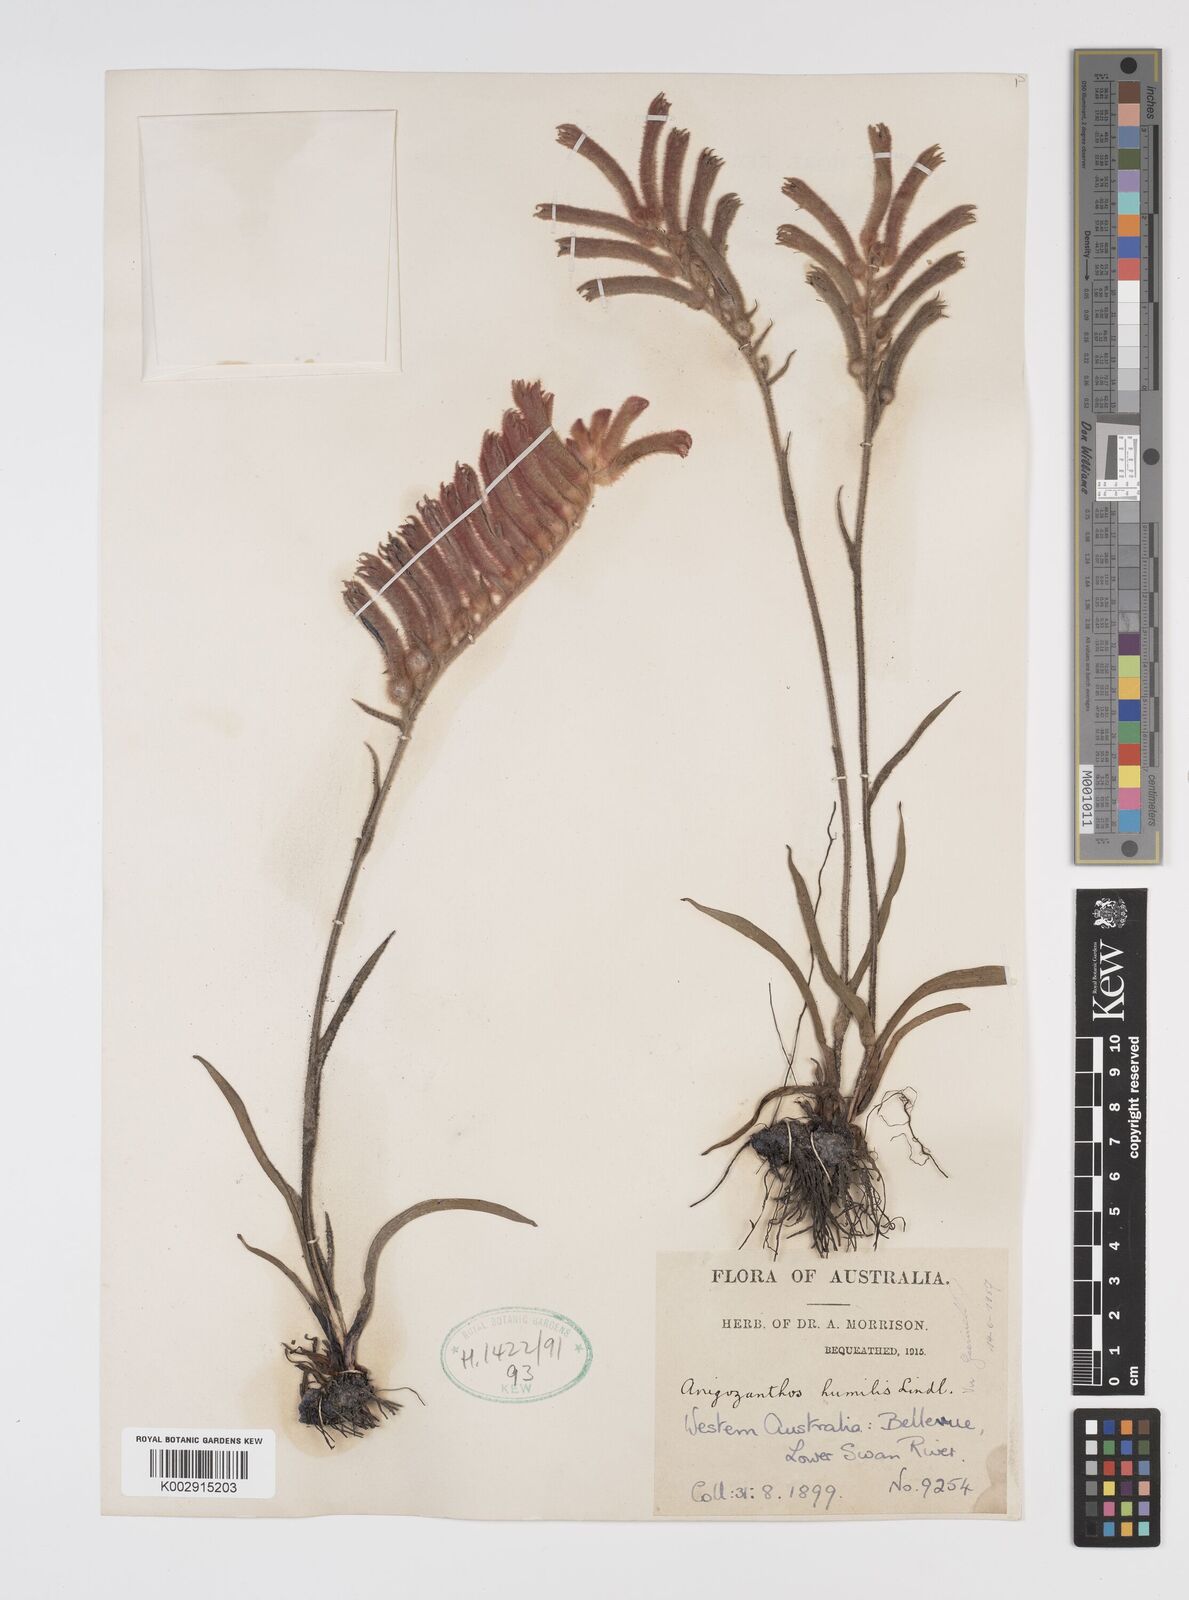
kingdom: Plantae
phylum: Tracheophyta
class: Liliopsida
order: Commelinales
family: Haemodoraceae
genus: Anigozanthos
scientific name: Anigozanthos humilis
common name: Cat's-paw
